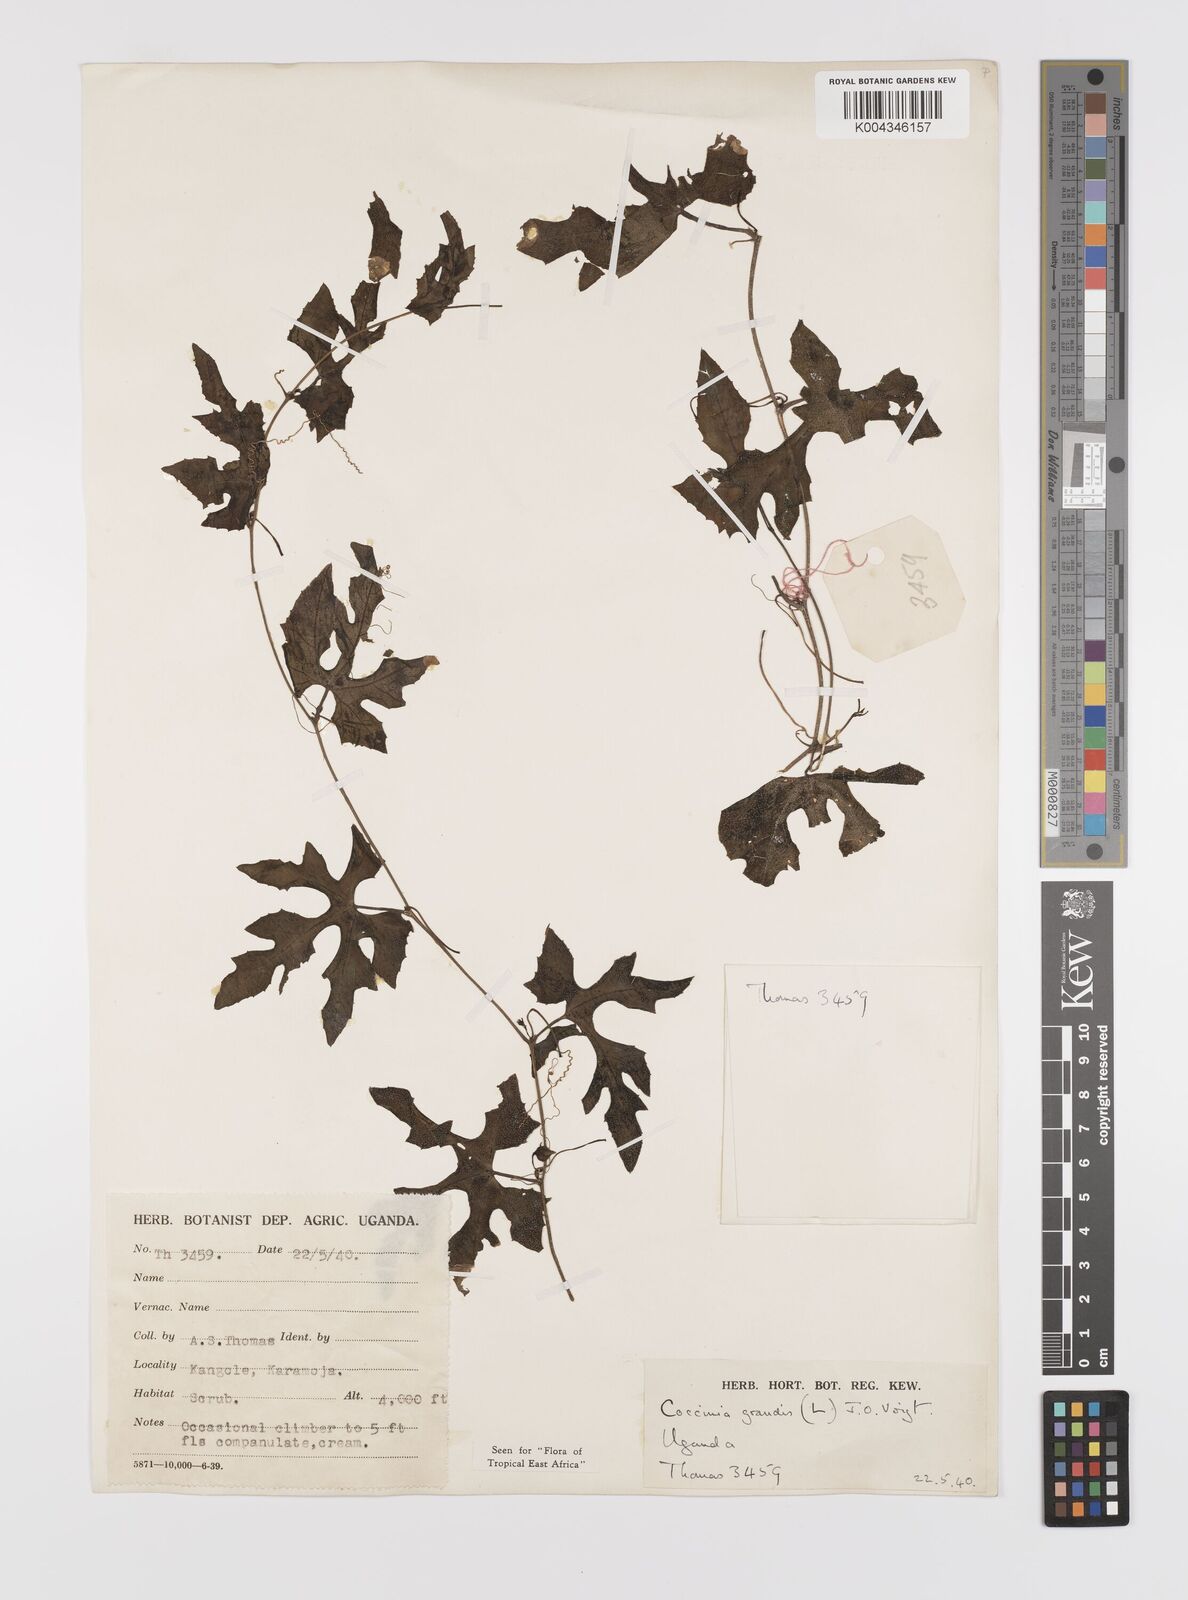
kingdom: Plantae
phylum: Tracheophyta
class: Magnoliopsida
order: Cucurbitales
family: Cucurbitaceae
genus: Coccinia
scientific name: Coccinia grandis
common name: Ivy gourd
